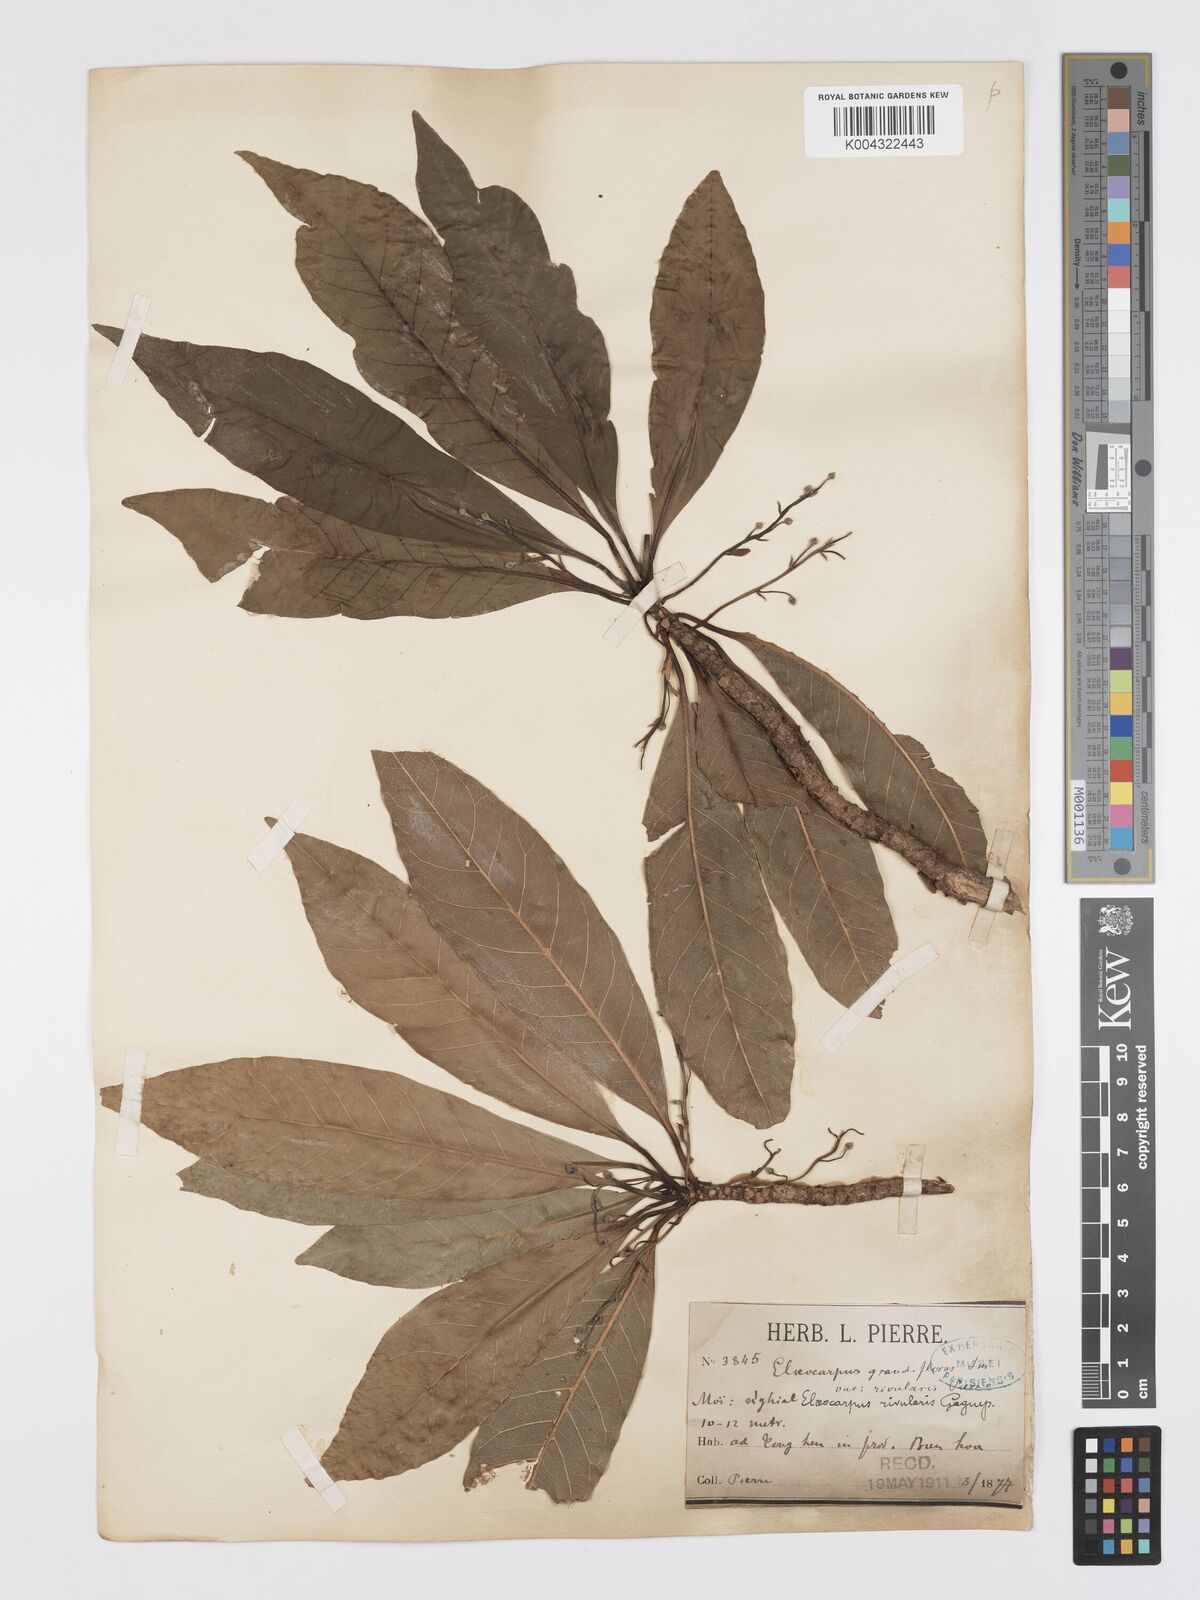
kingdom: Plantae
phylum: Tracheophyta
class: Magnoliopsida
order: Oxalidales
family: Elaeocarpaceae
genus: Elaeocarpus
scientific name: Elaeocarpus rivularis
